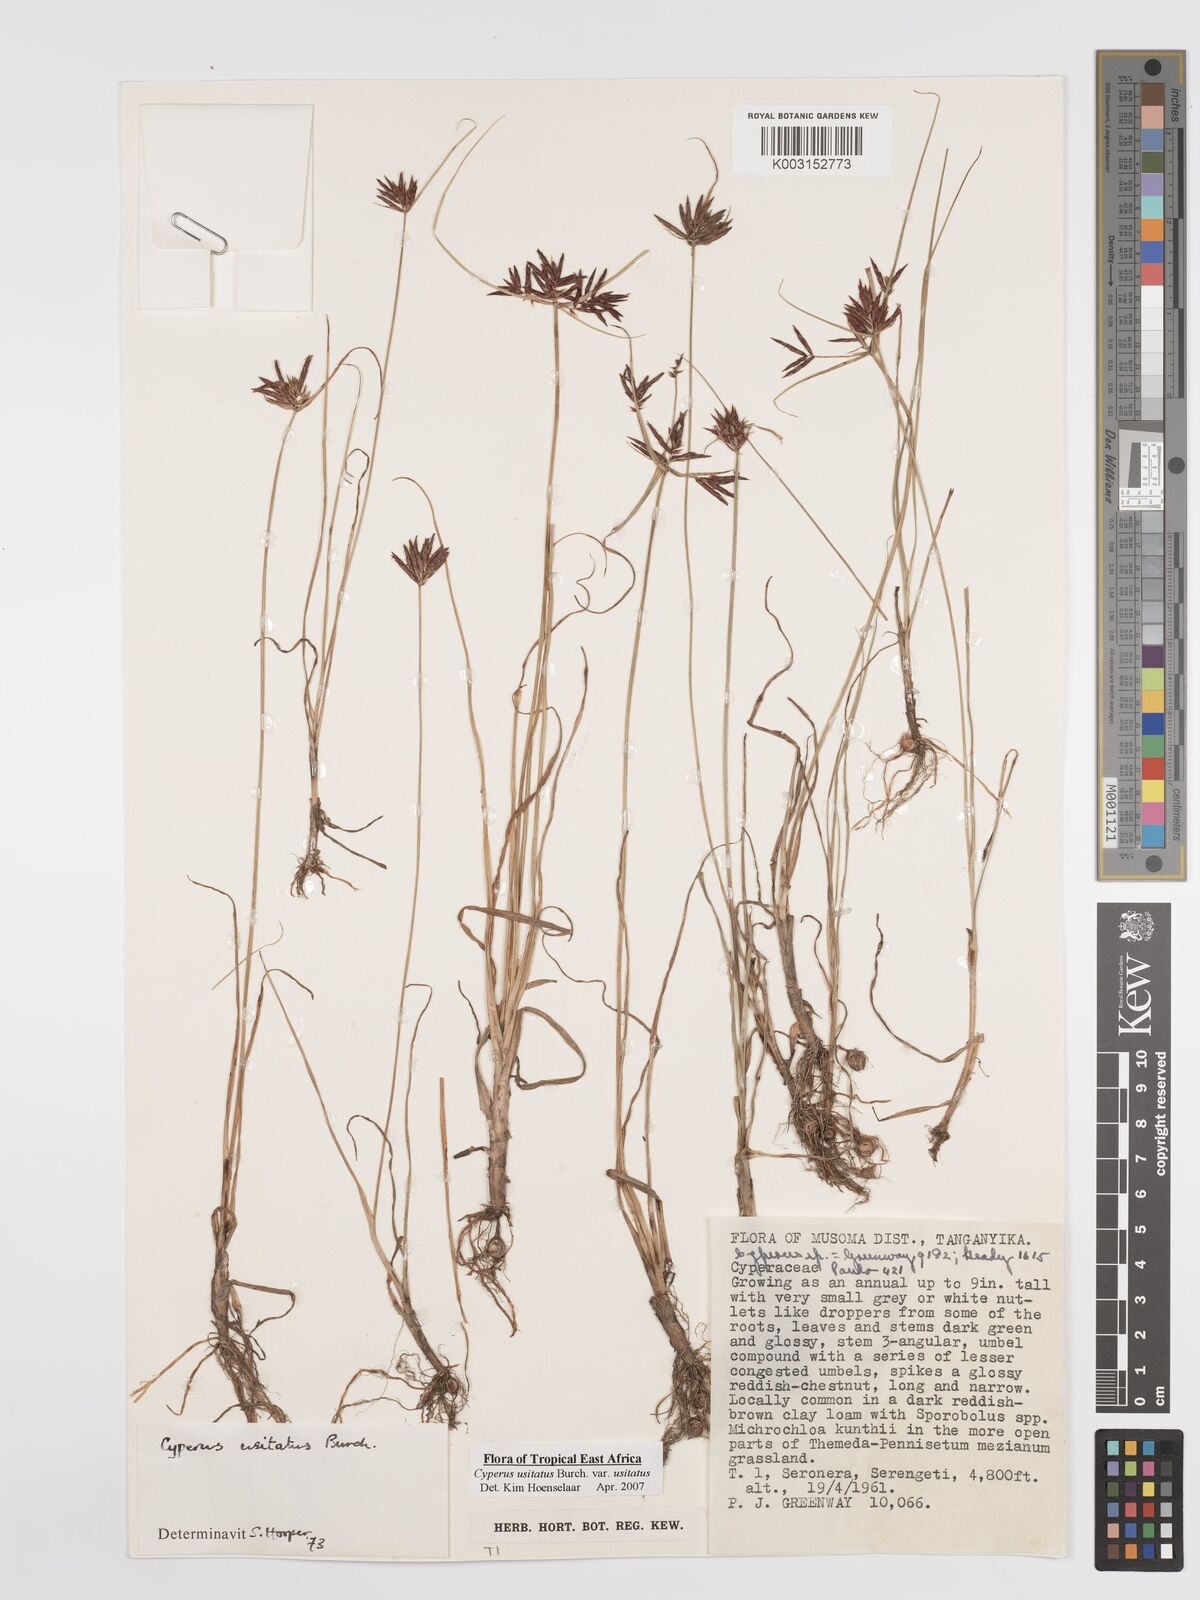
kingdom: Plantae
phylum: Tracheophyta
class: Liliopsida
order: Poales
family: Cyperaceae
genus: Cyperus
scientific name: Cyperus usitatus
